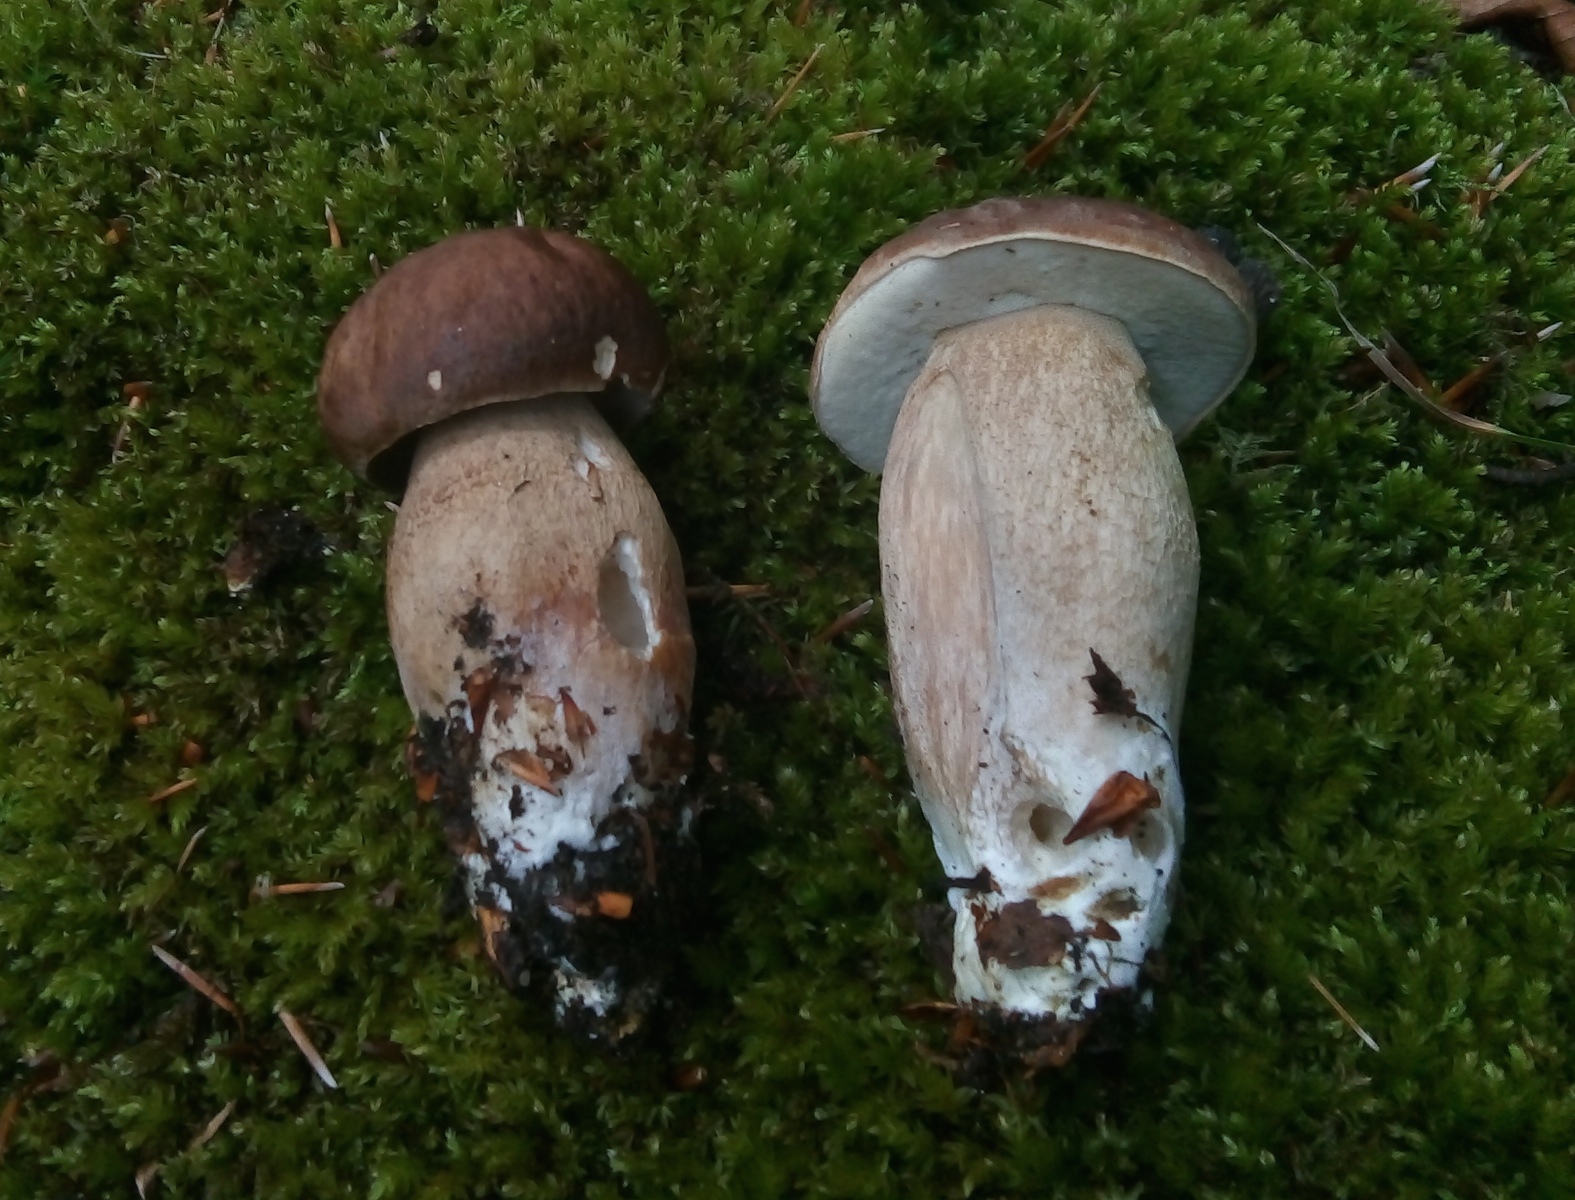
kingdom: Fungi
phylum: Basidiomycota
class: Agaricomycetes
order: Boletales
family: Boletaceae
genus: Boletus
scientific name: Boletus reticulatus
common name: sommer-rørhat
